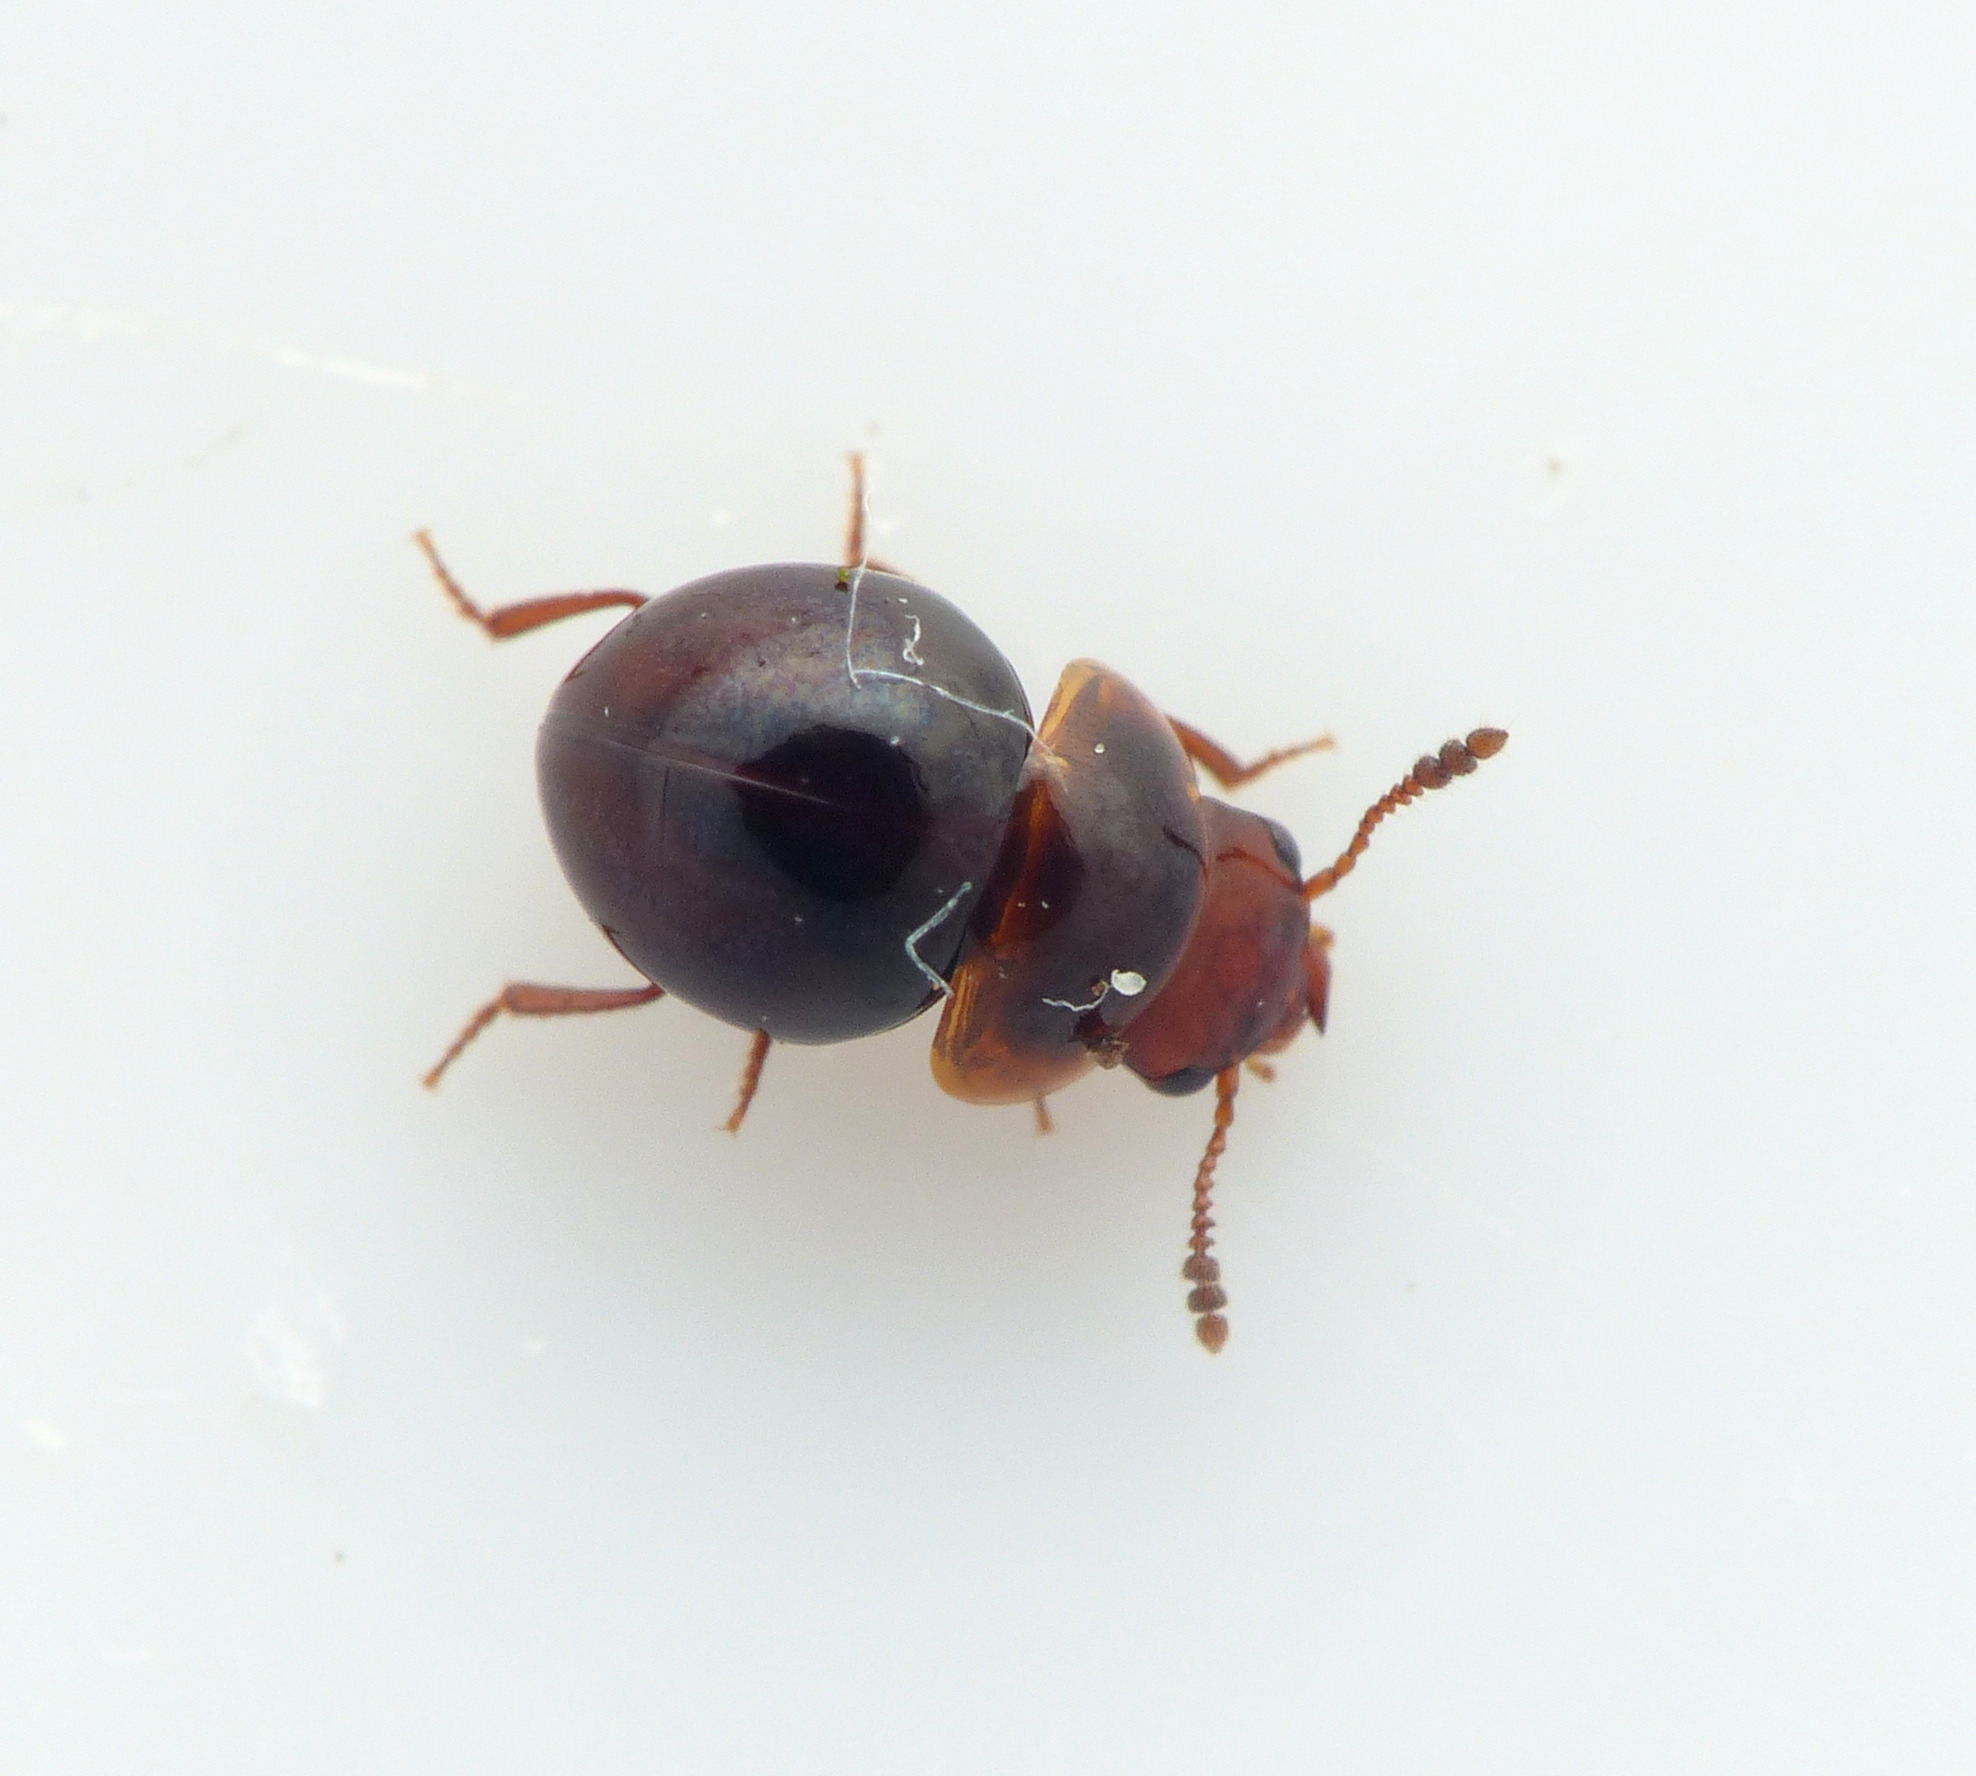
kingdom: Animalia
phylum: Arthropoda
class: Insecta
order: Coleoptera
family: Leiodidae
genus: Agathidium
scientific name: Agathidium varians
